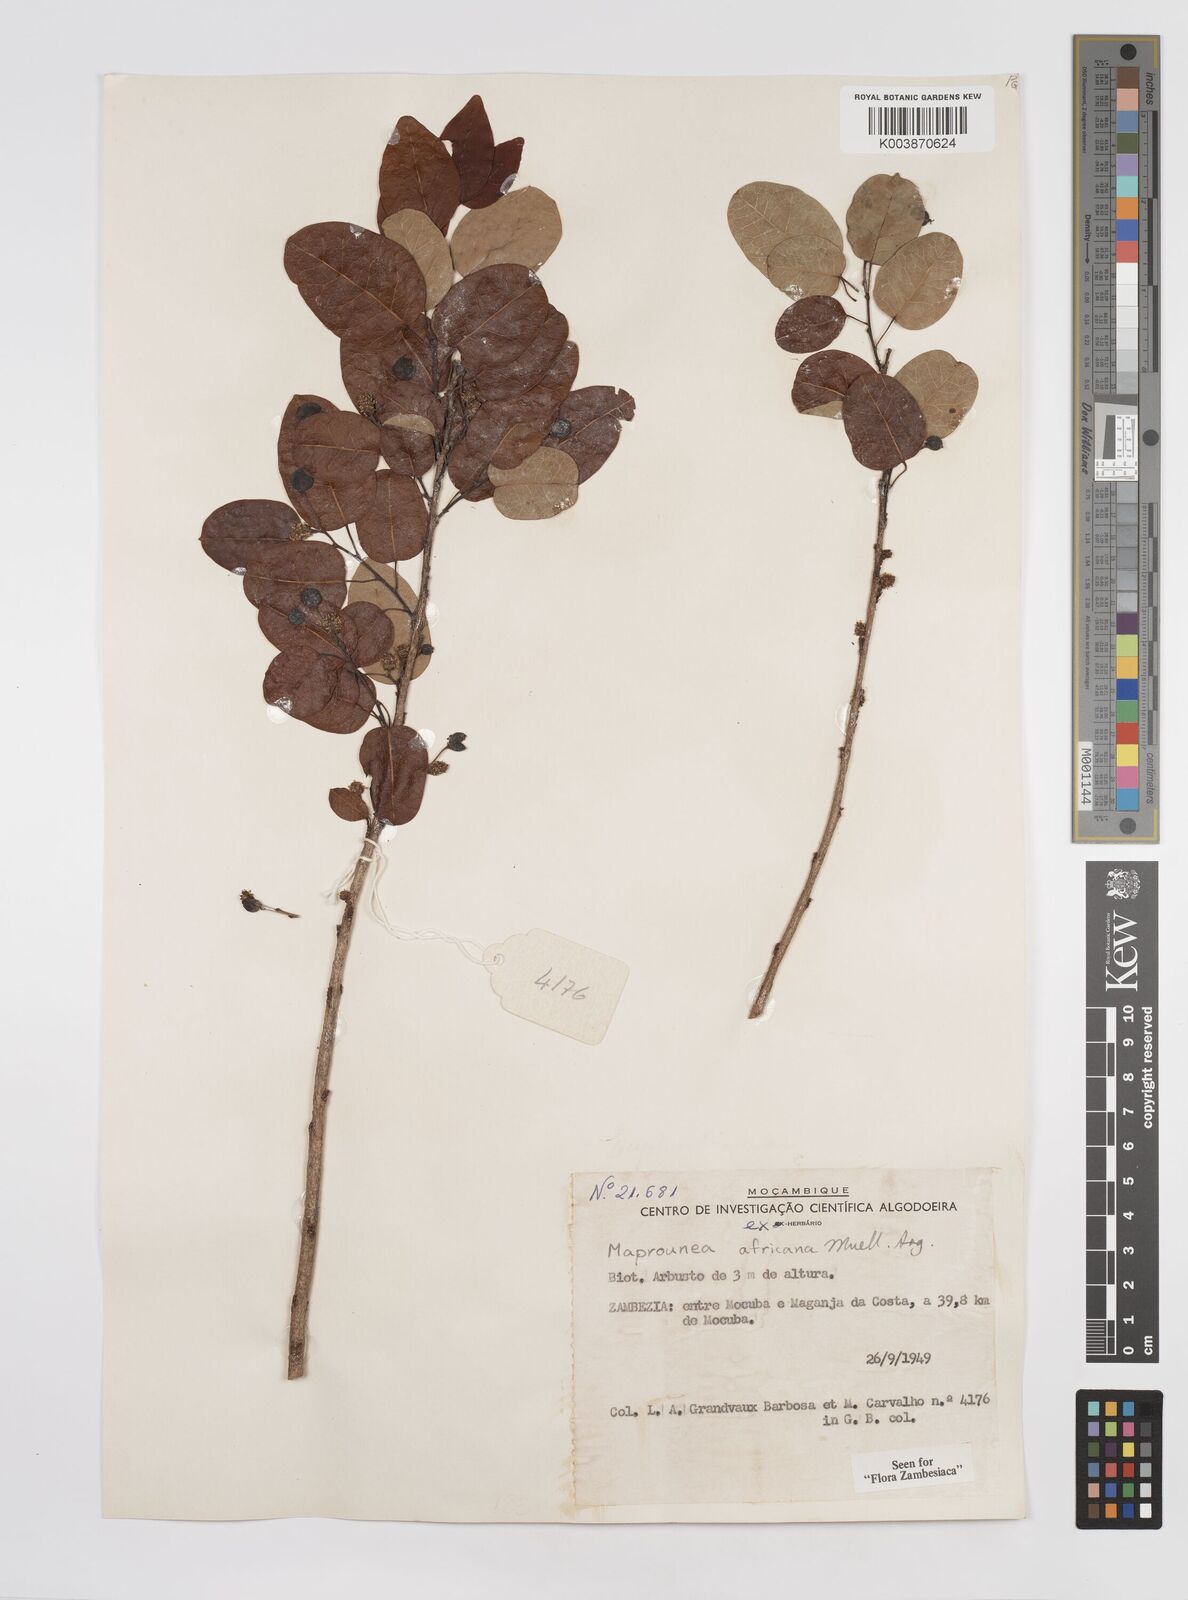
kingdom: Plantae
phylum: Tracheophyta
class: Magnoliopsida
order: Malpighiales
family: Euphorbiaceae
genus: Maprounea
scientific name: Maprounea africana
